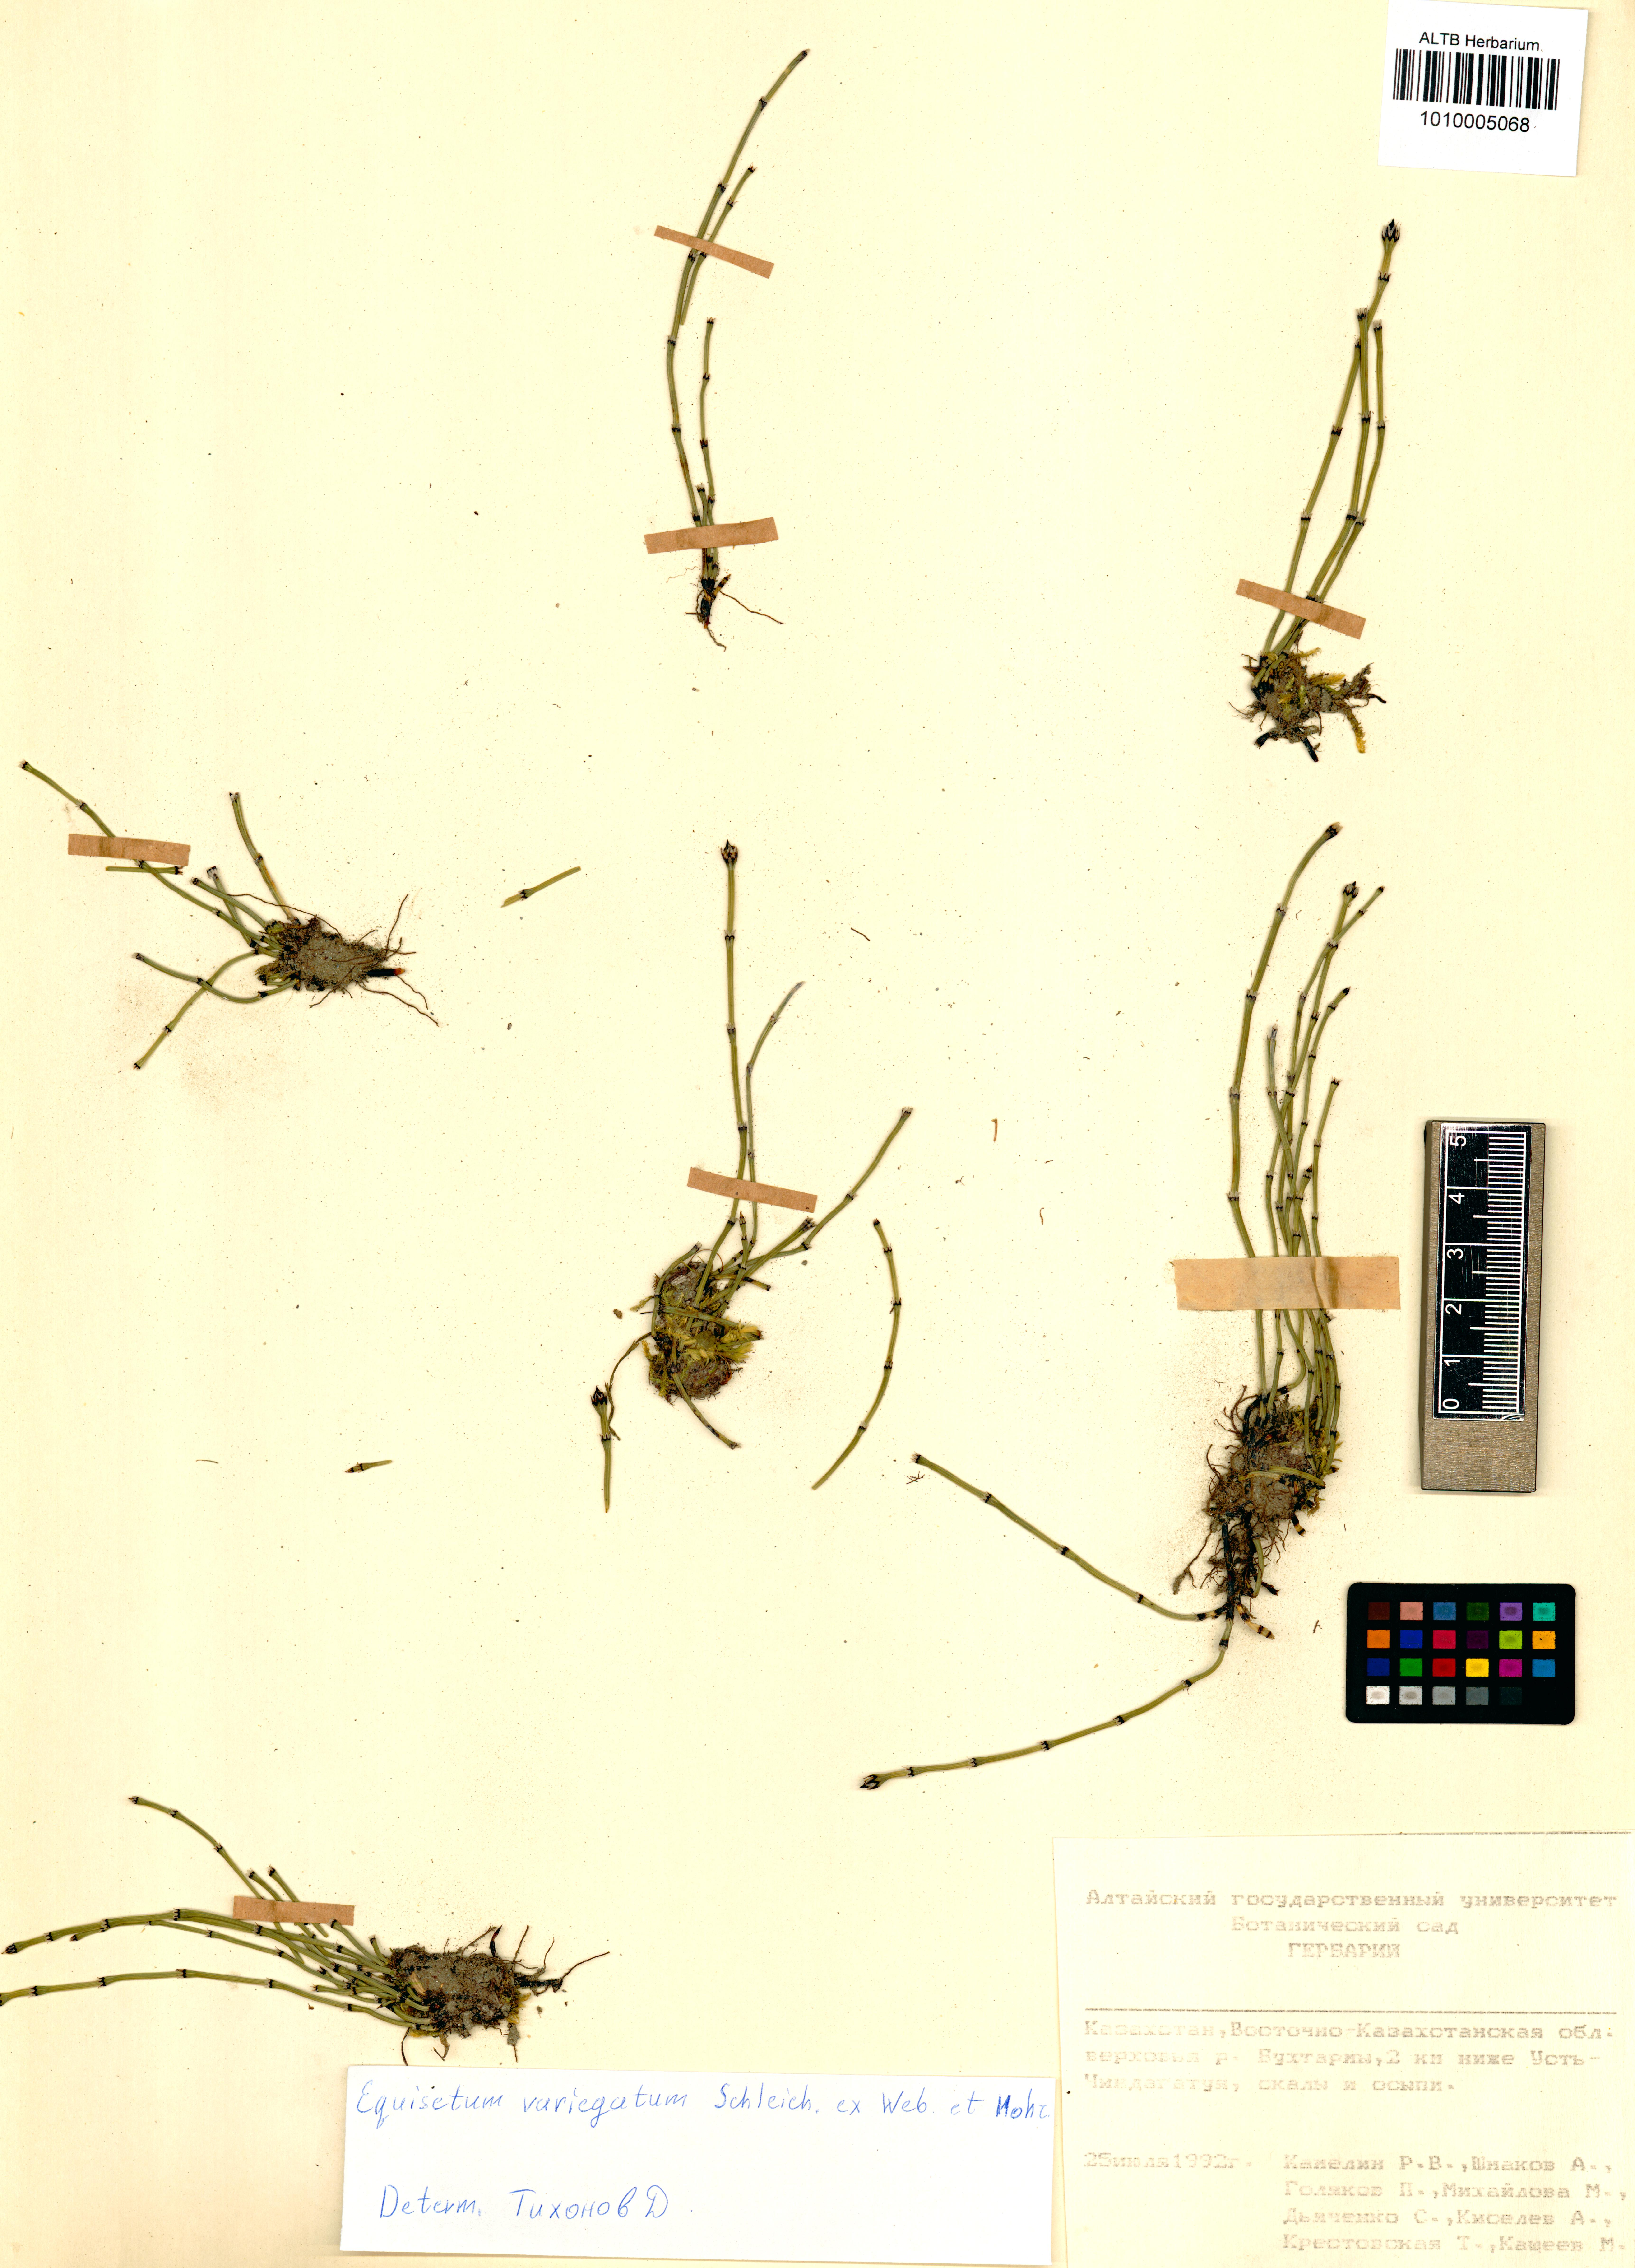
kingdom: Plantae
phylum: Tracheophyta
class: Polypodiopsida
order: Equisetales
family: Equisetaceae
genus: Equisetum
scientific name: Equisetum variegatum
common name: Variegated horsetail
